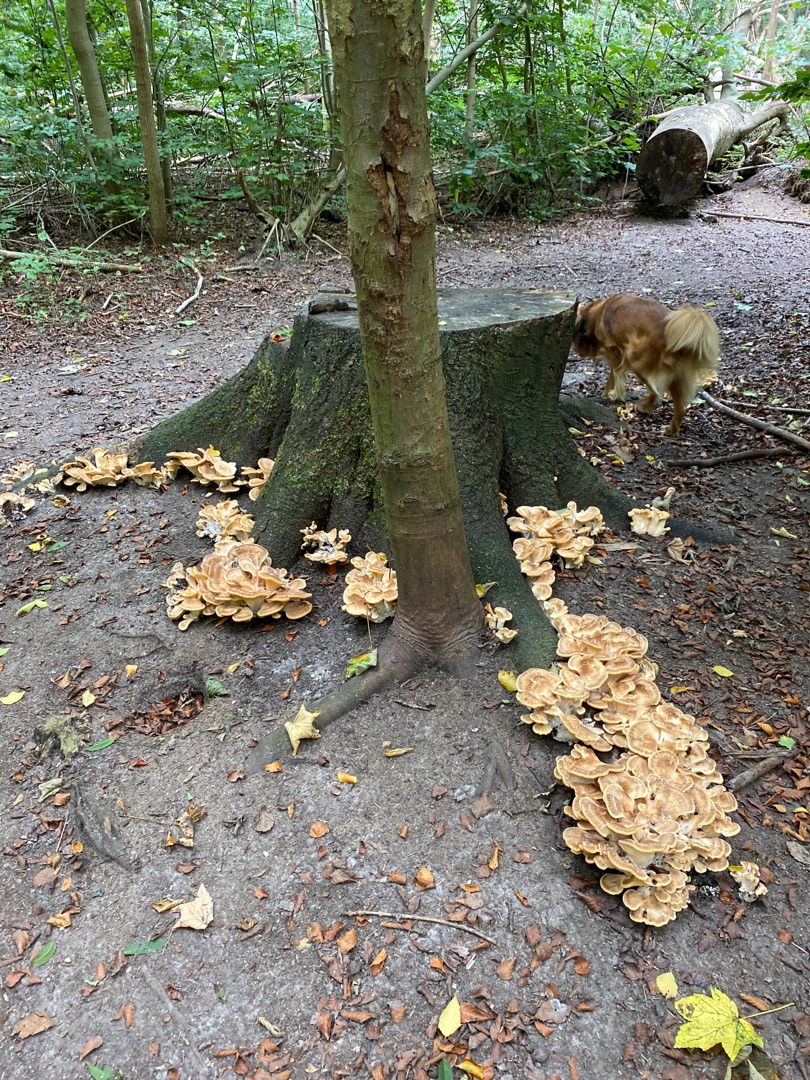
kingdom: Fungi
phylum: Basidiomycota
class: Agaricomycetes
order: Polyporales
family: Meripilaceae
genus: Meripilus
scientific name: Meripilus giganteus
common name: Kæmpeporesvamp
